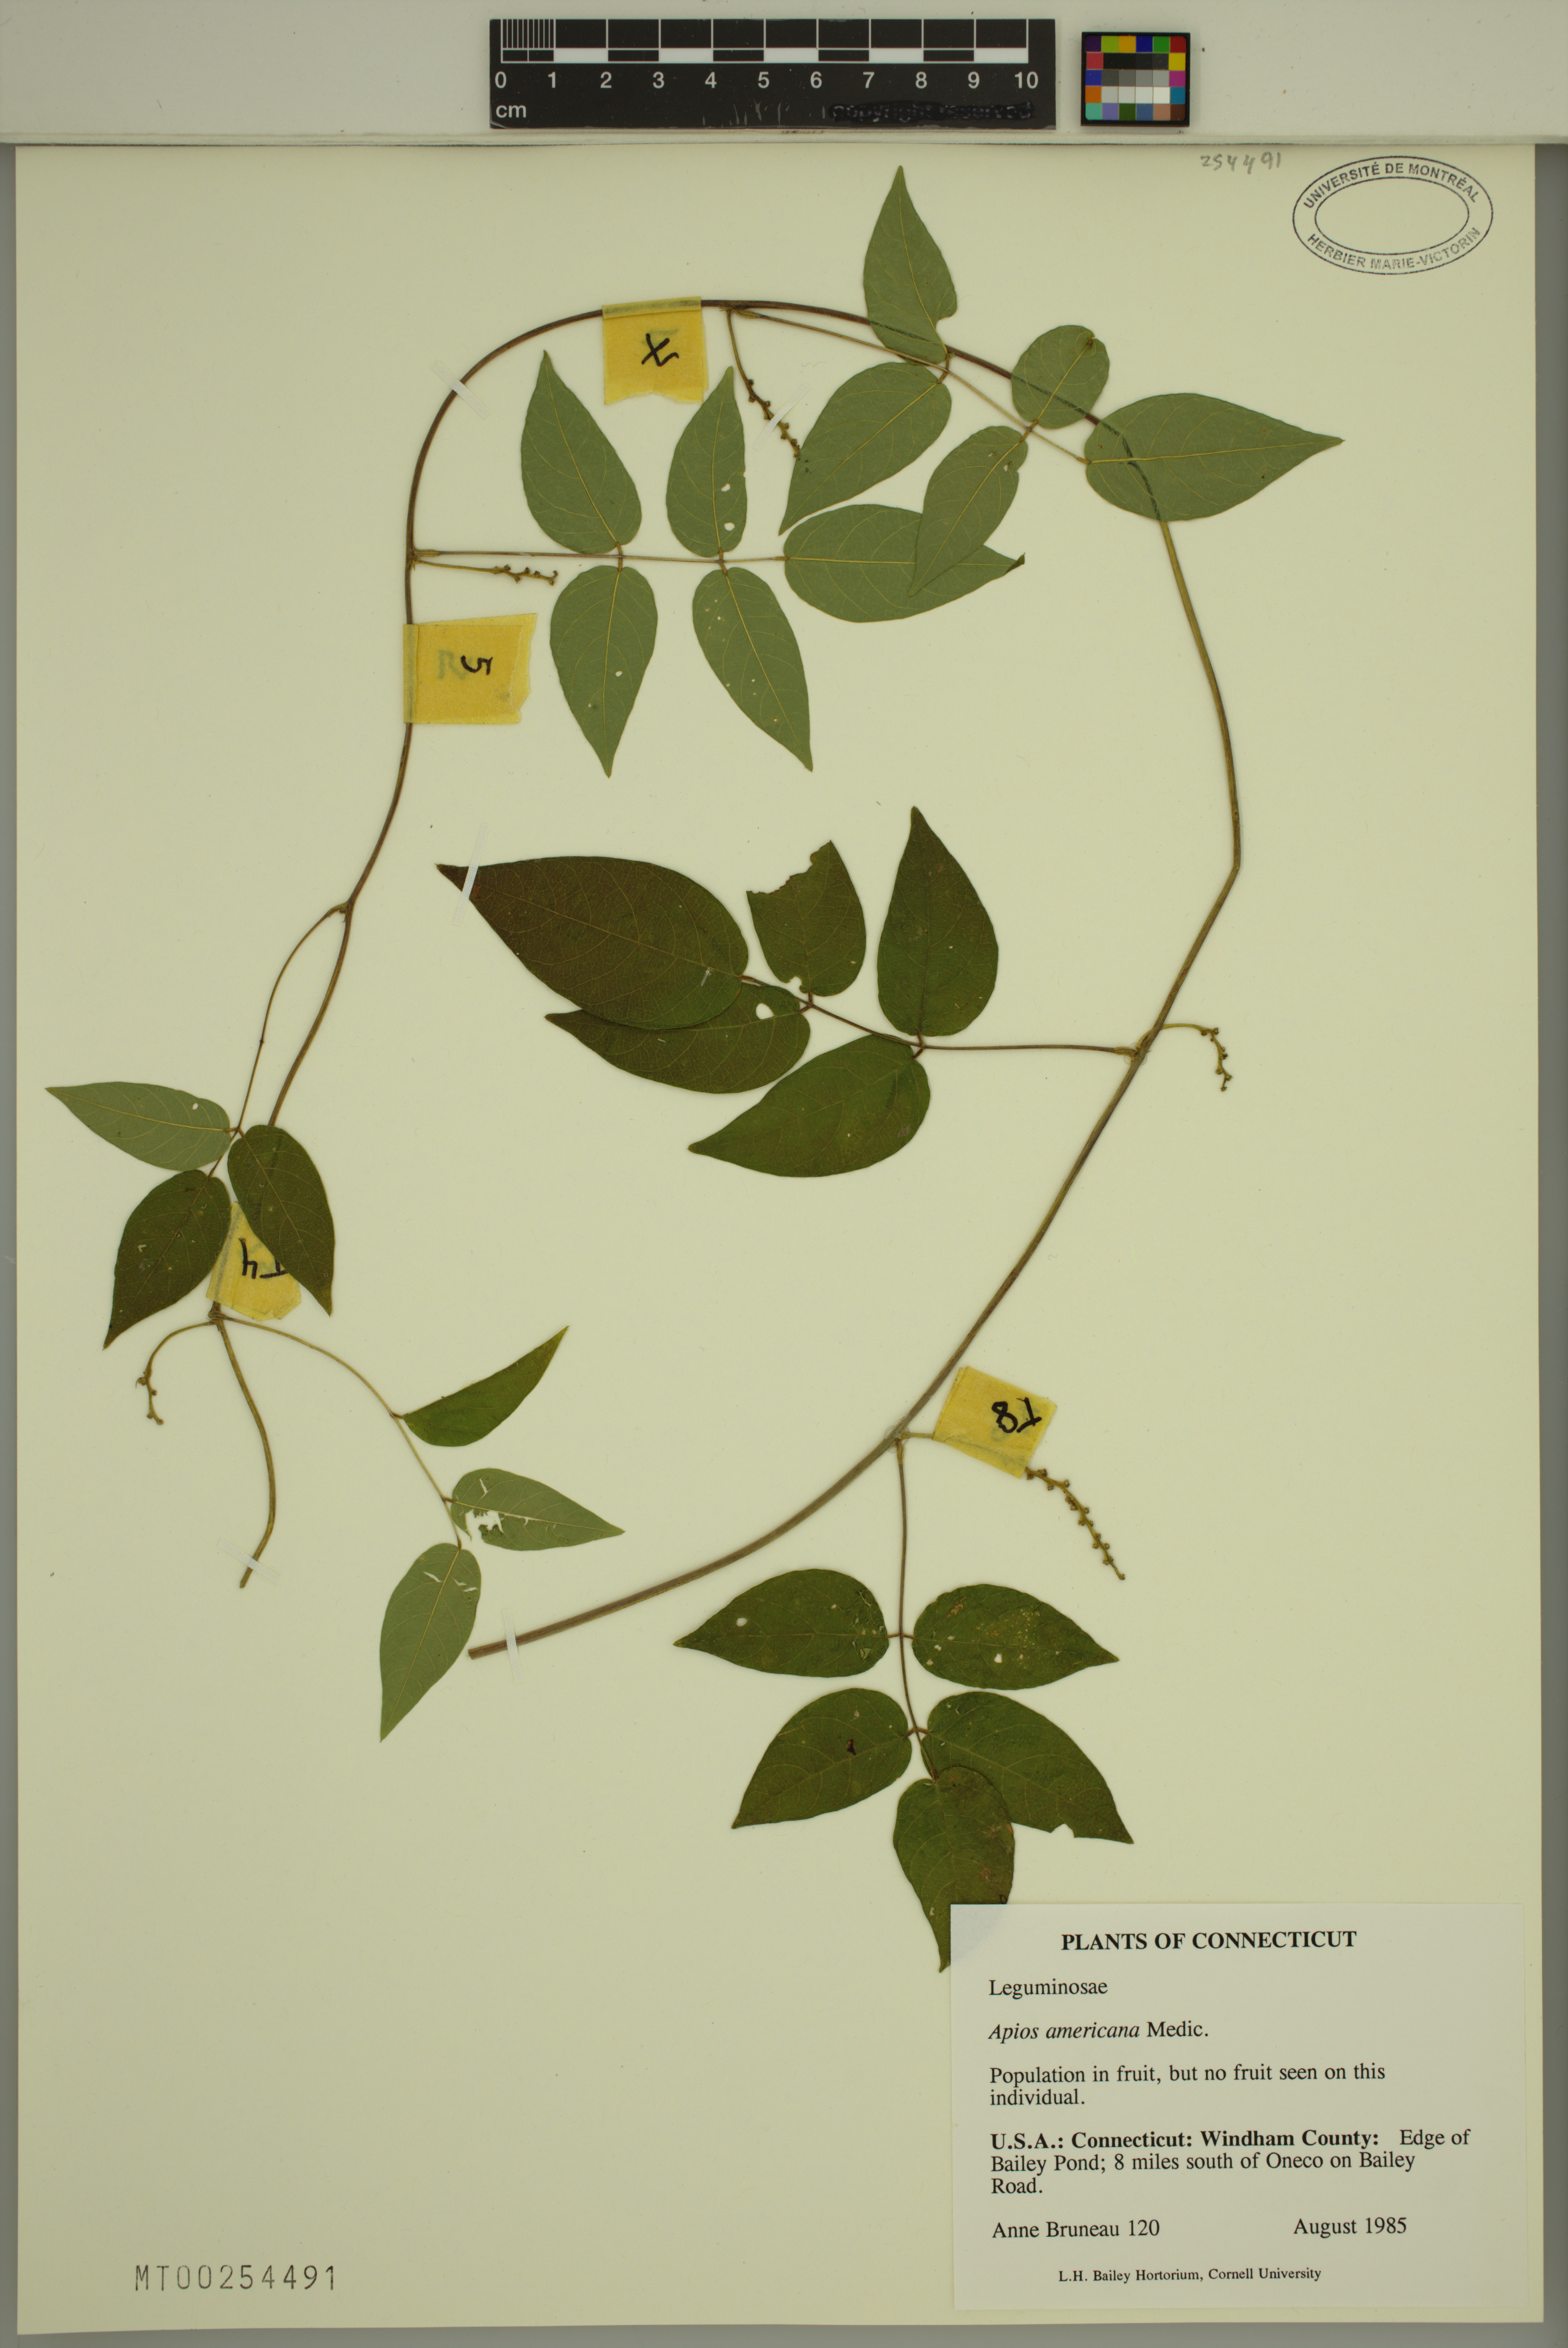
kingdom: Plantae
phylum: Tracheophyta
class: Magnoliopsida
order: Fabales
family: Fabaceae
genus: Apios
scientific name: Apios americana
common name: American potato-bean
